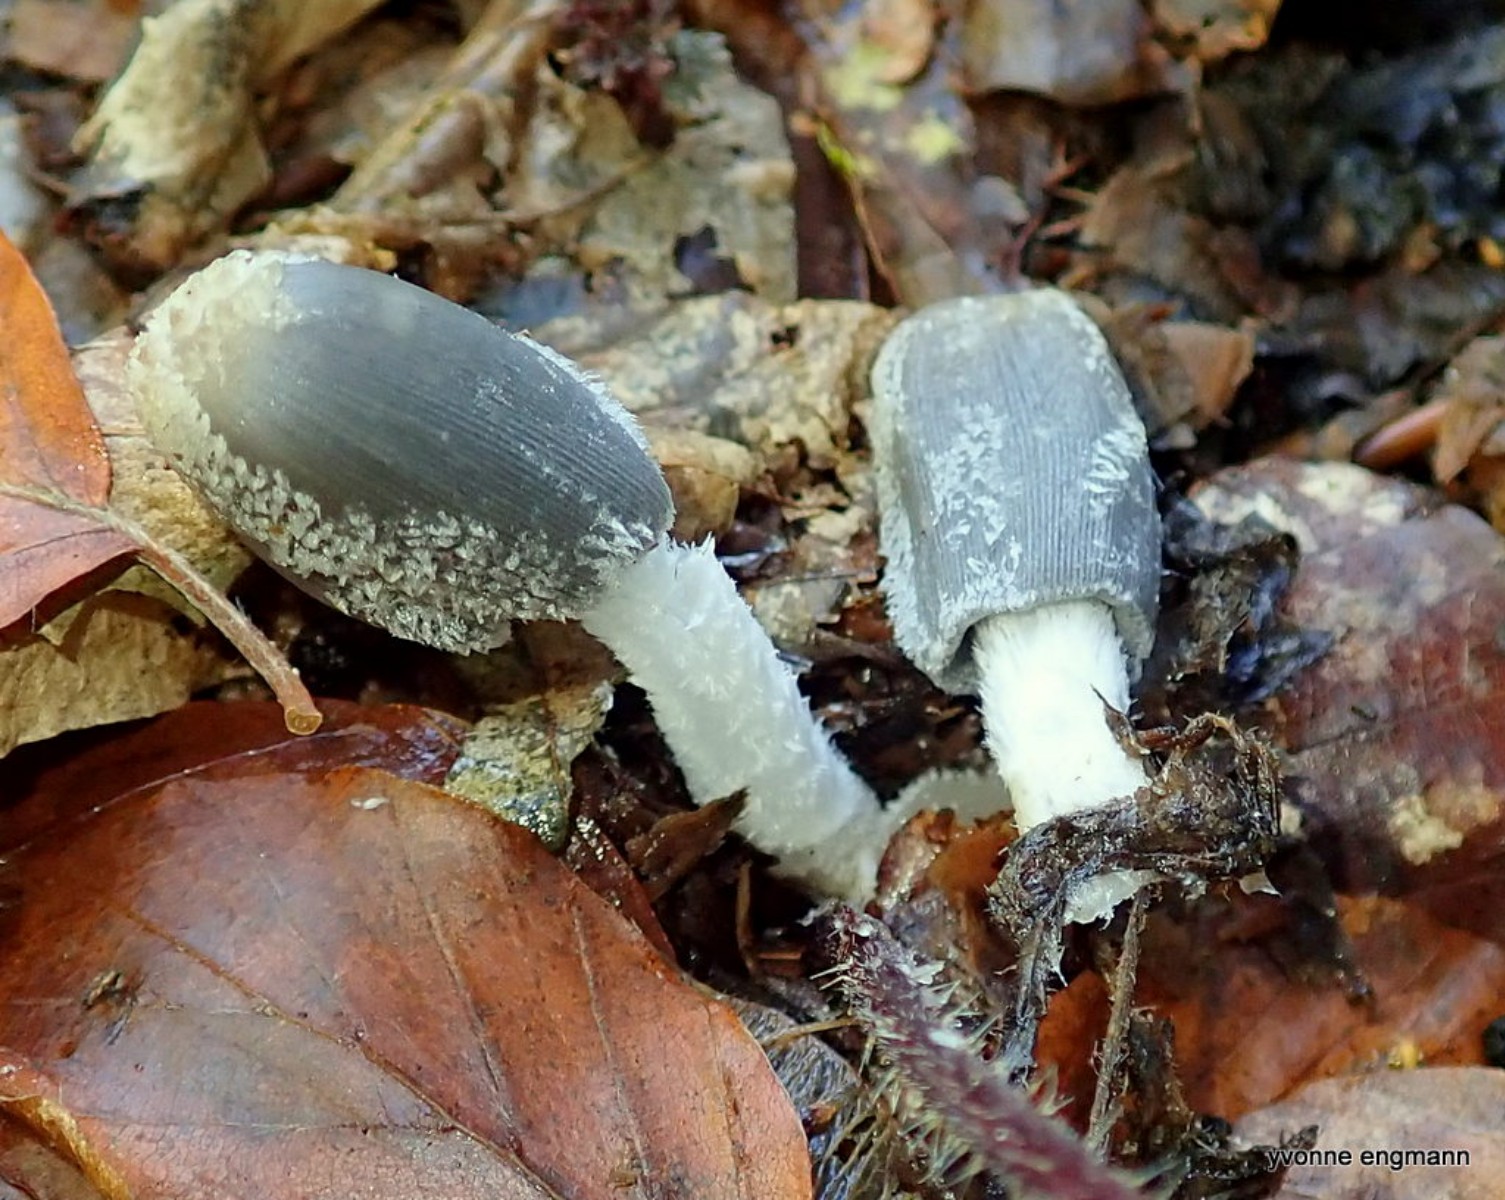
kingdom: Fungi
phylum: Basidiomycota
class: Agaricomycetes
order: Agaricales
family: Psathyrellaceae
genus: Coprinopsis
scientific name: Coprinopsis lagopus
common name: dunstokket blækhat
